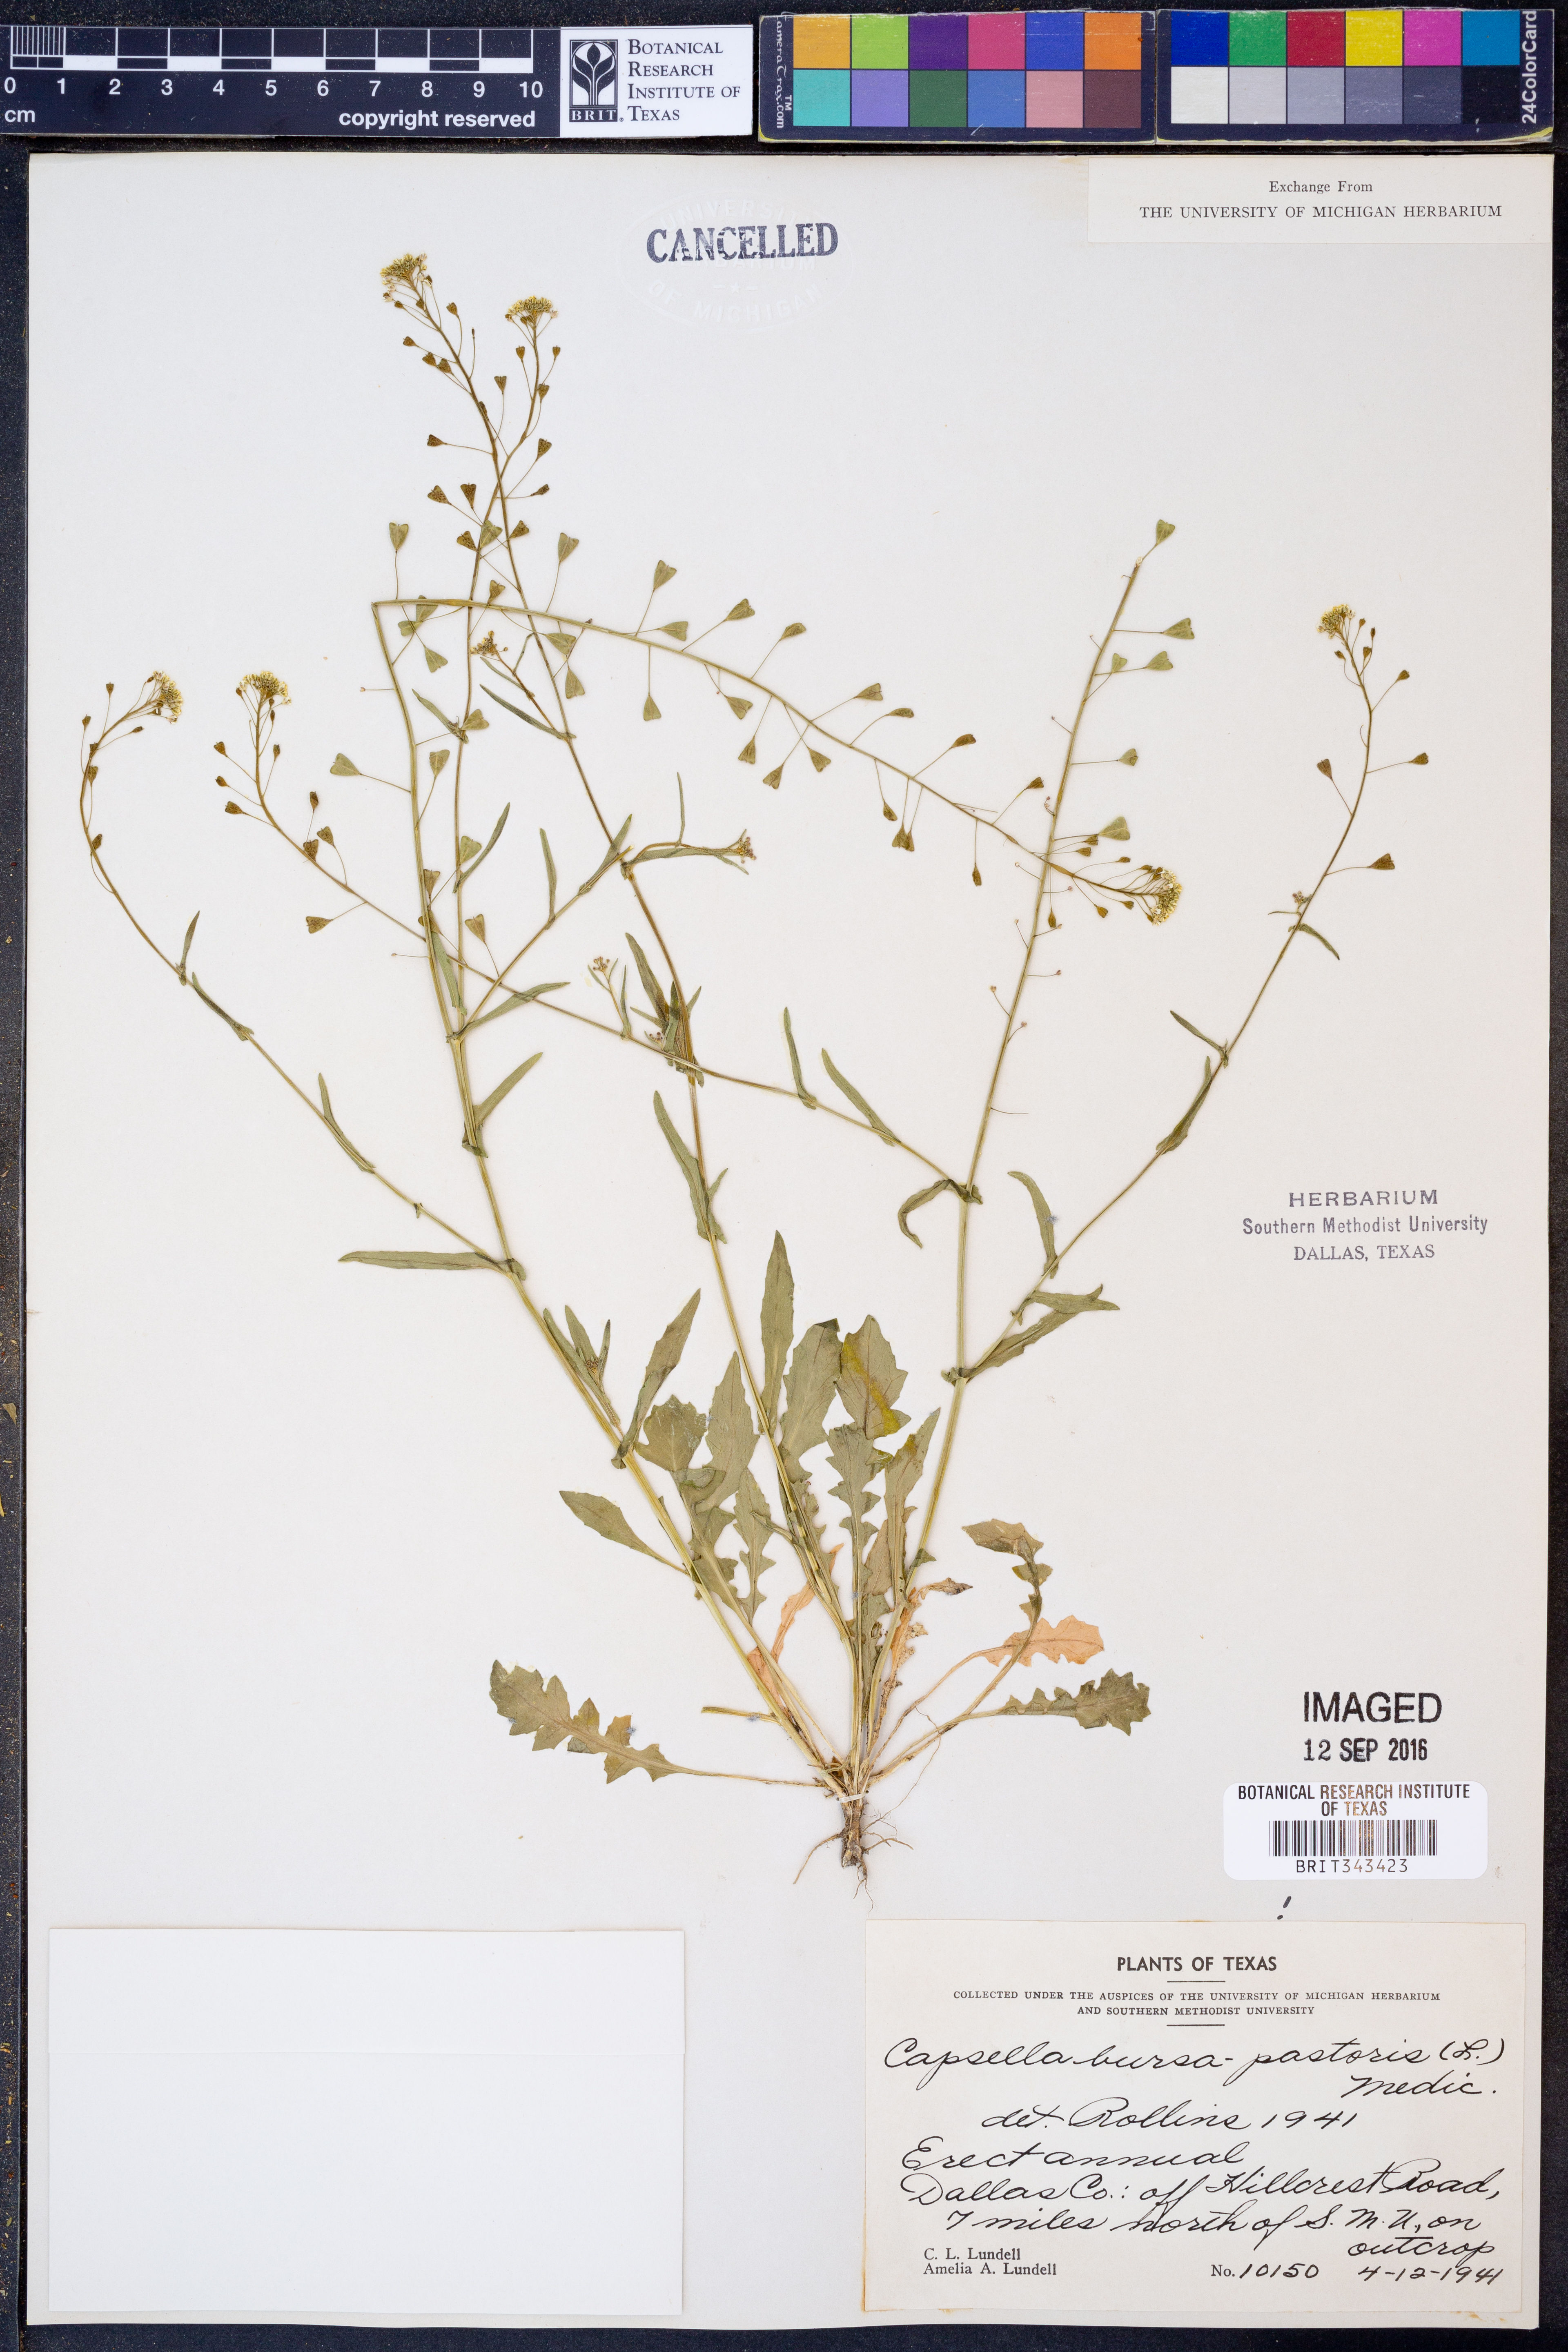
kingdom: Plantae
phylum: Tracheophyta
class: Magnoliopsida
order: Brassicales
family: Brassicaceae
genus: Capsella
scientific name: Capsella bursa-pastoris
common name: Shepherd's purse
